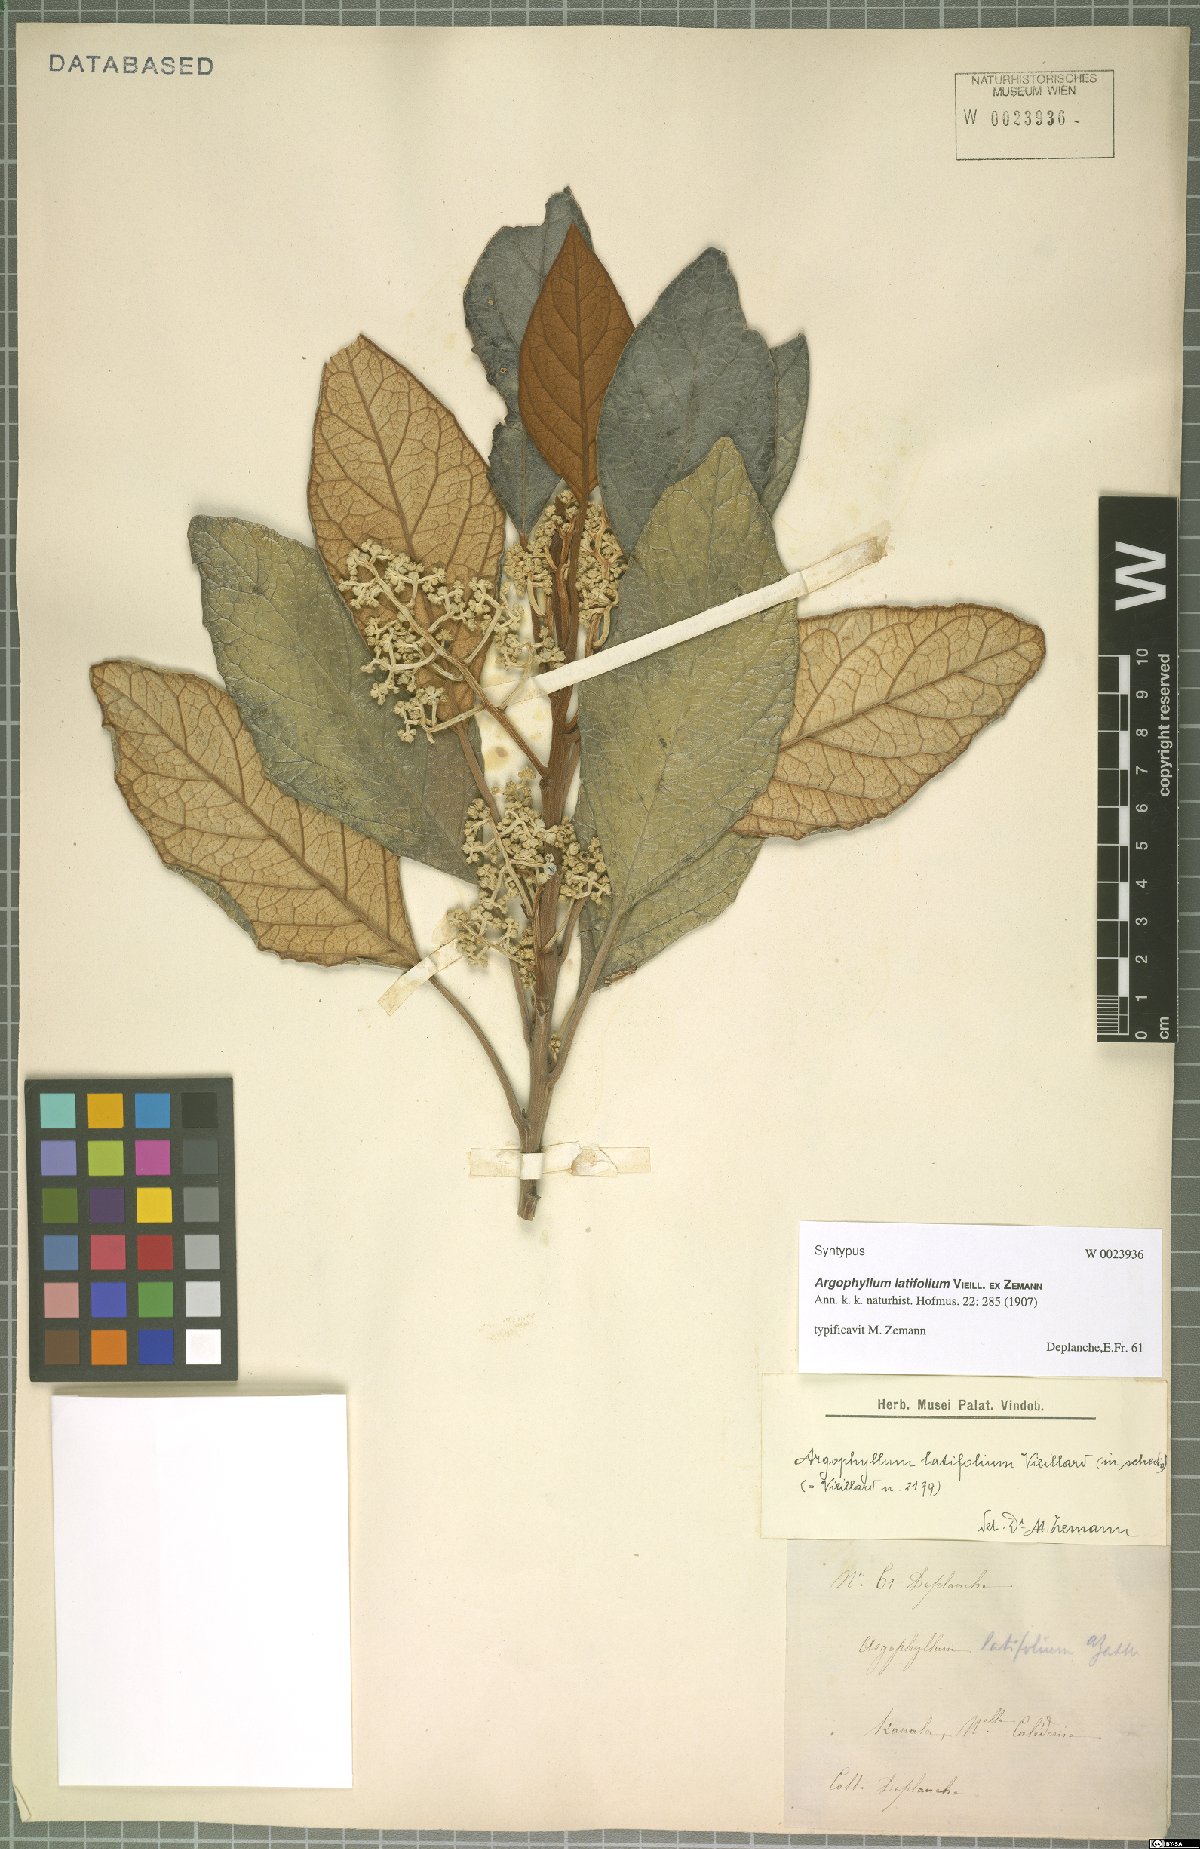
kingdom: Plantae
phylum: Tracheophyta
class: Magnoliopsida
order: Asterales
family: Argophyllaceae
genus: Argophyllum
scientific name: Argophyllum grunowii
